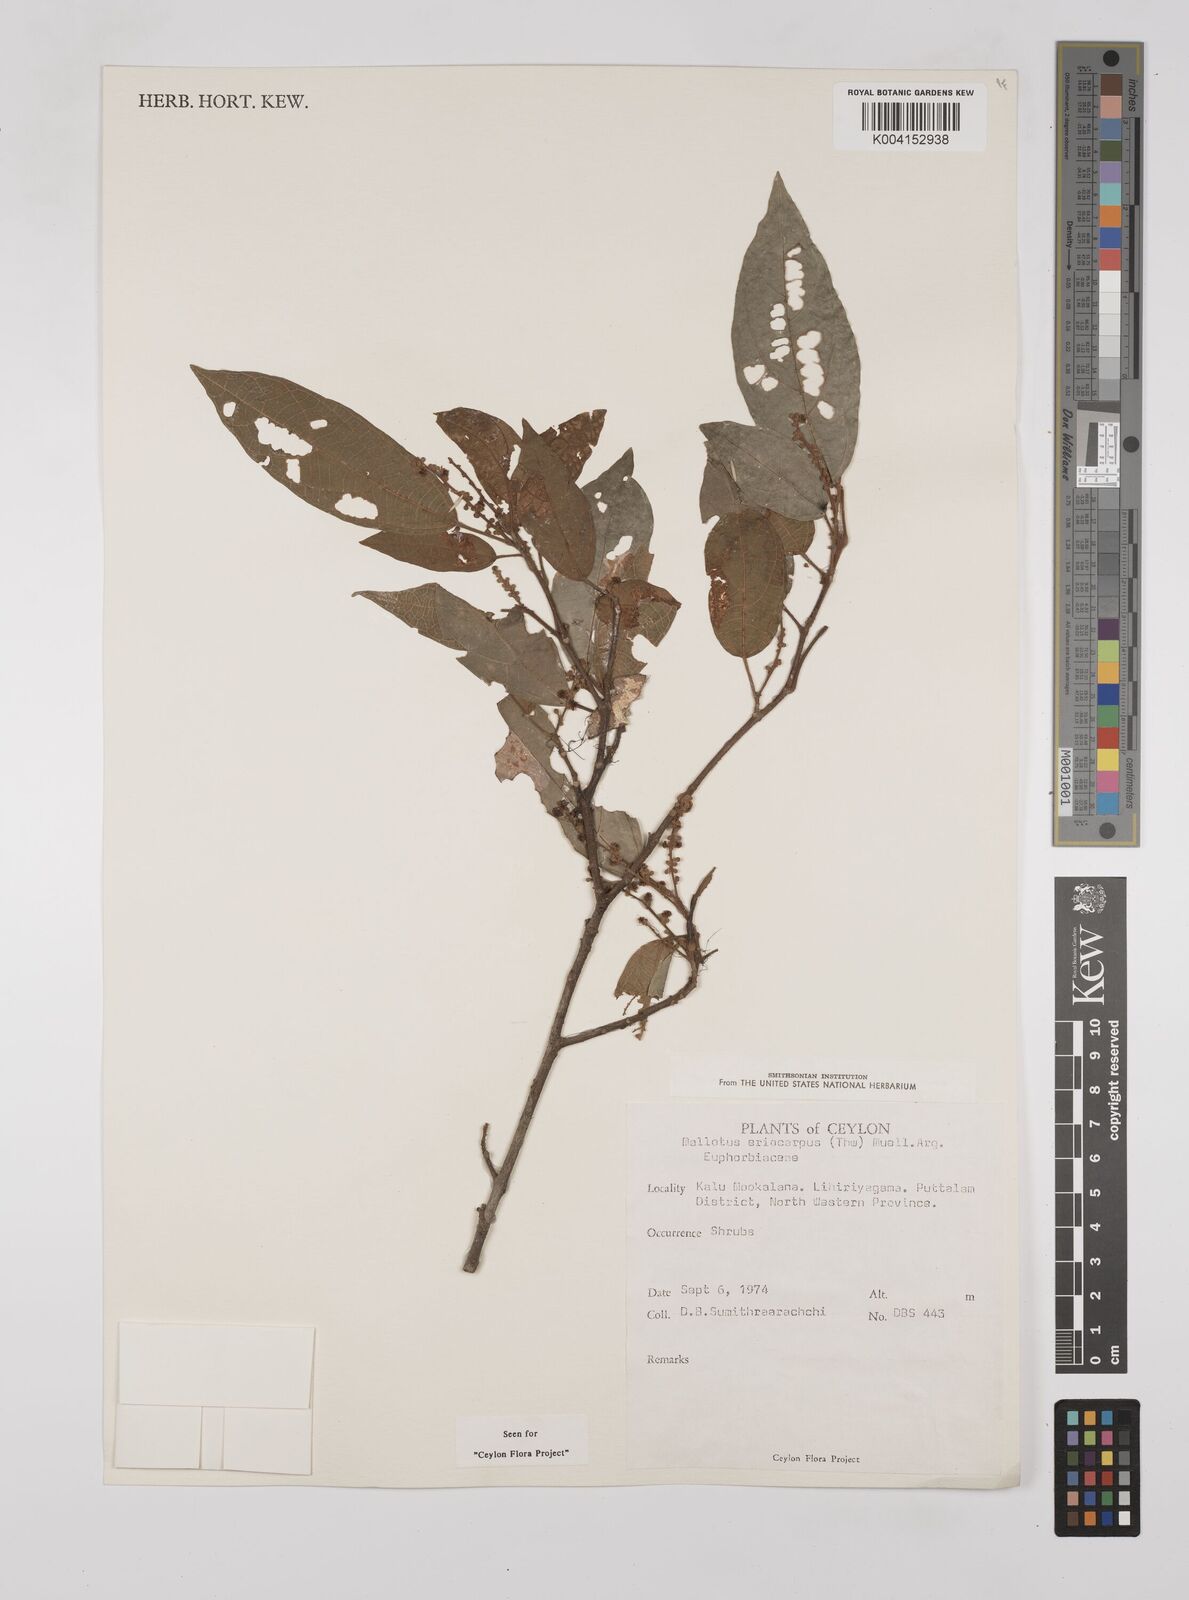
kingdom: Plantae
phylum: Tracheophyta
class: Magnoliopsida
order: Malpighiales
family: Euphorbiaceae
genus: Mallotus
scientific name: Mallotus eriocarpus
